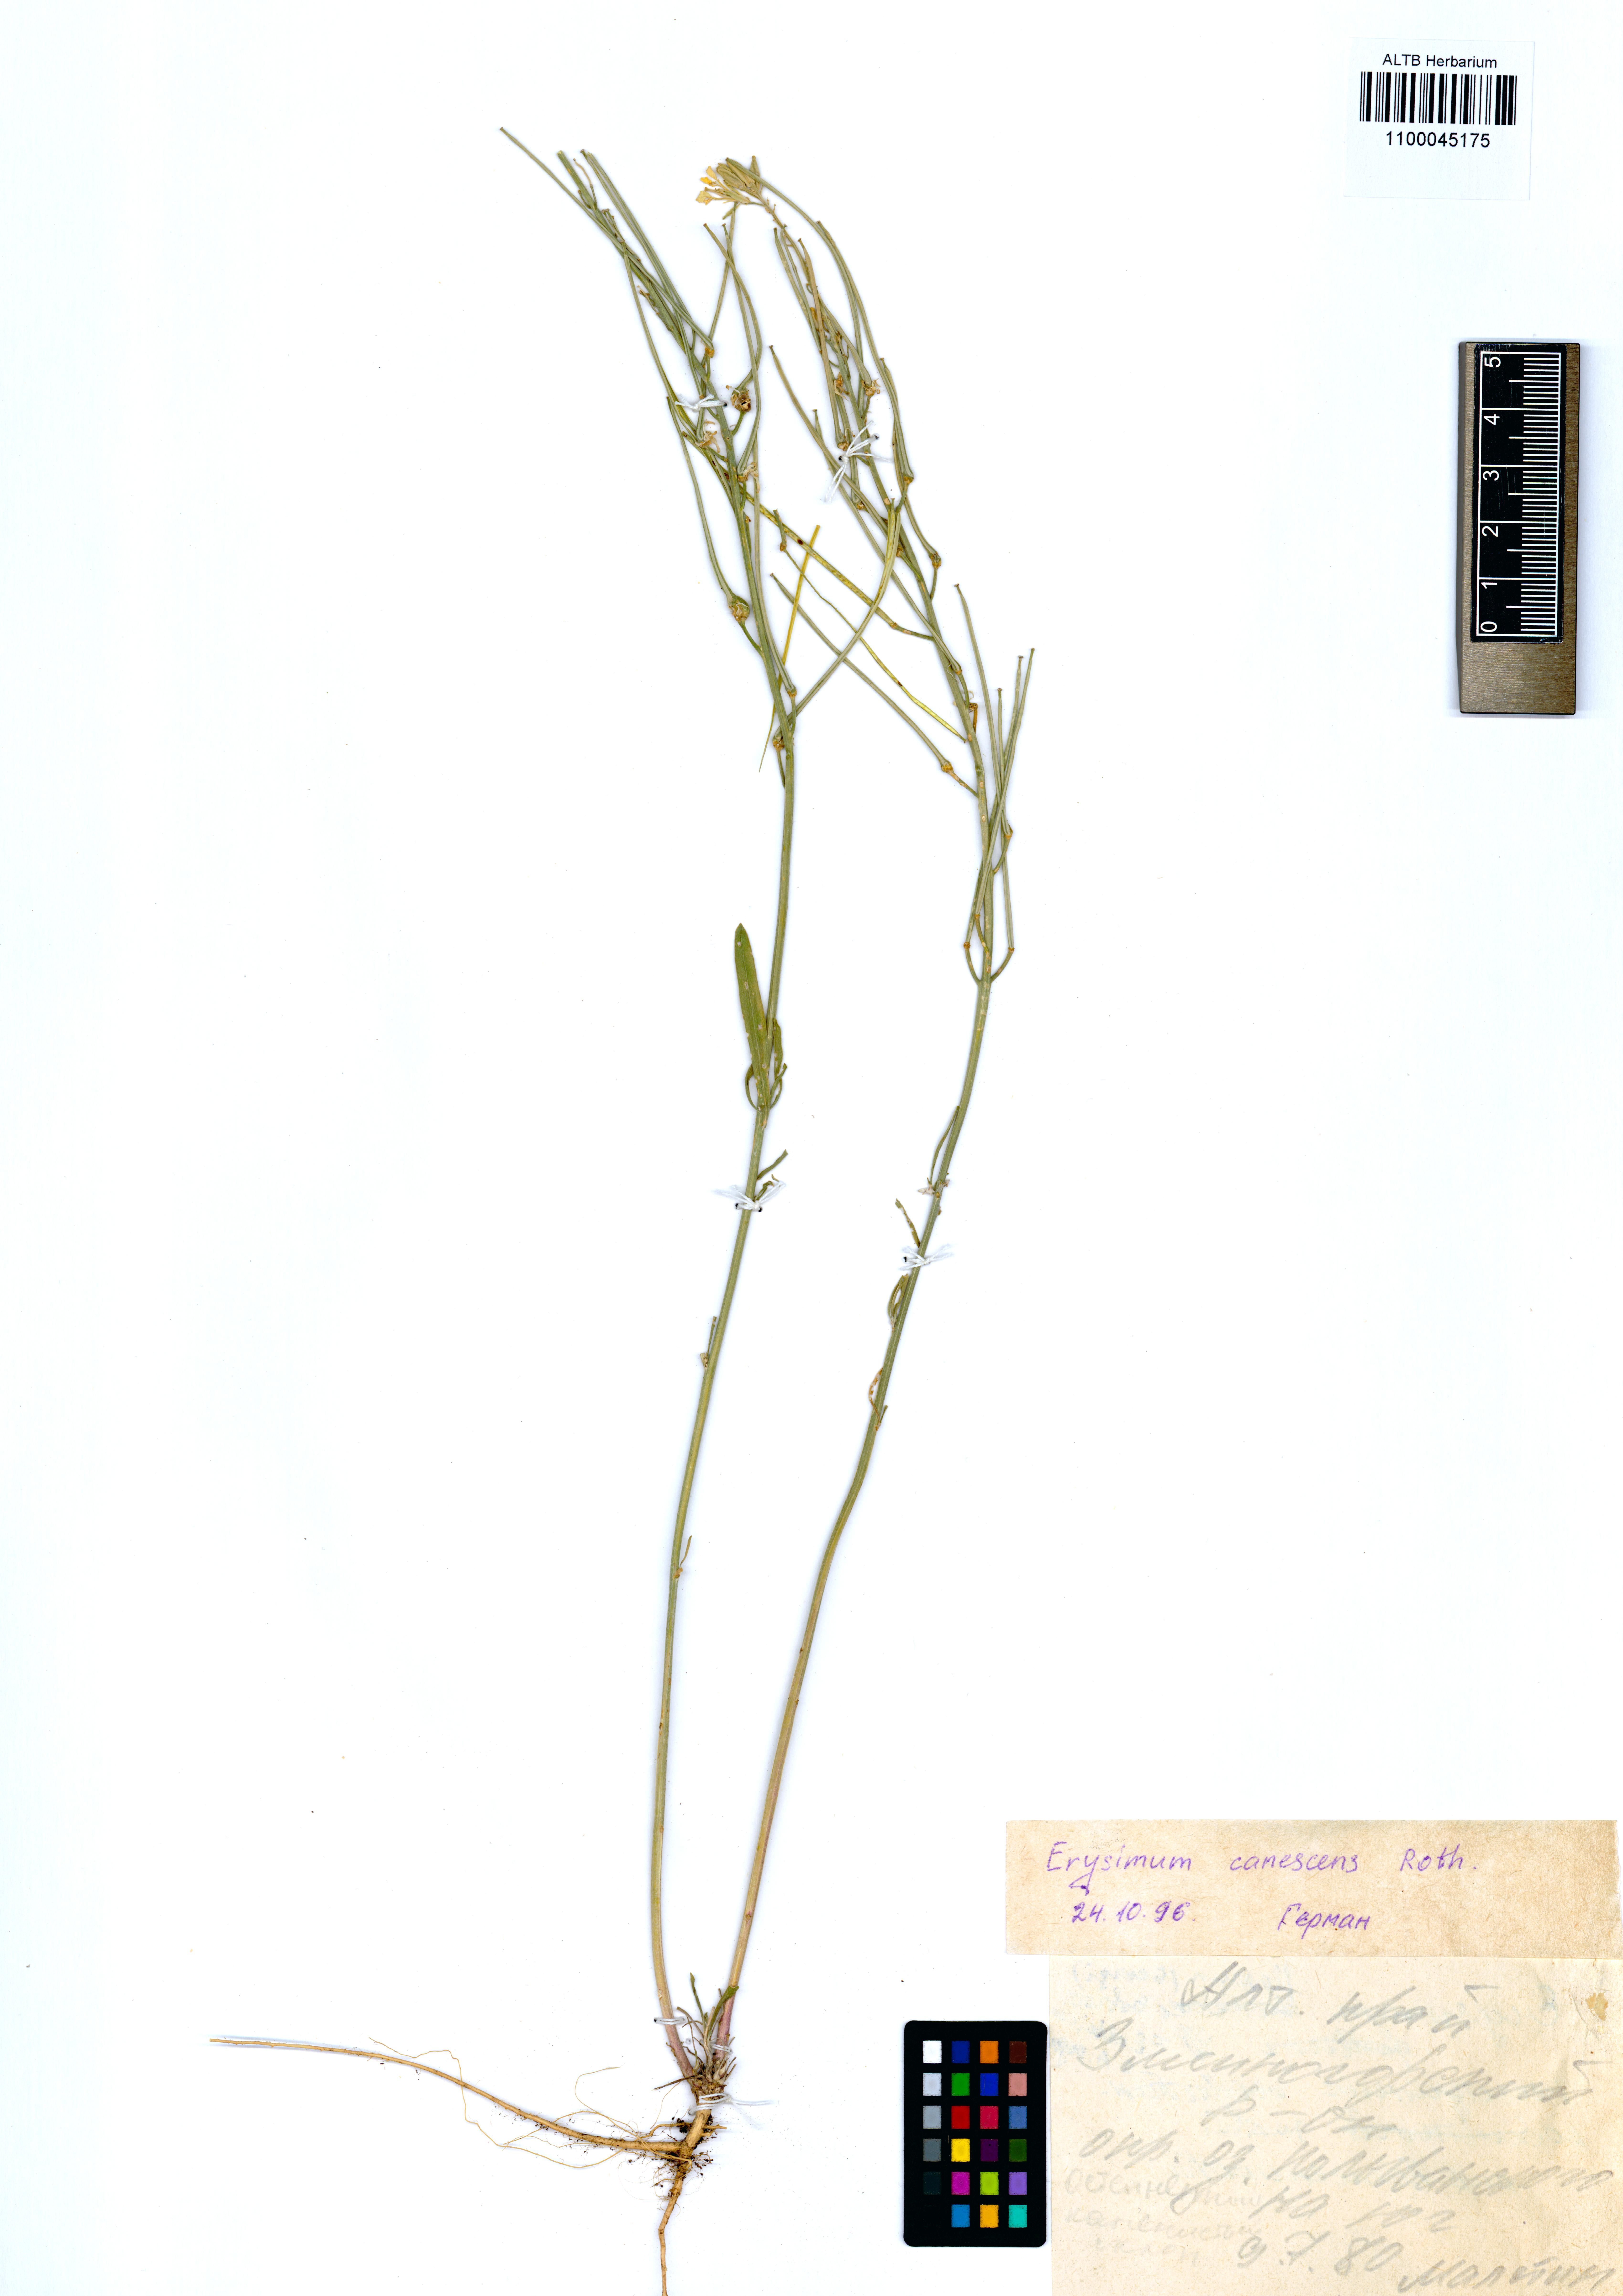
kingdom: Plantae
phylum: Tracheophyta
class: Magnoliopsida
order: Brassicales
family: Brassicaceae
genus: Erysimum
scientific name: Erysimum canescens
